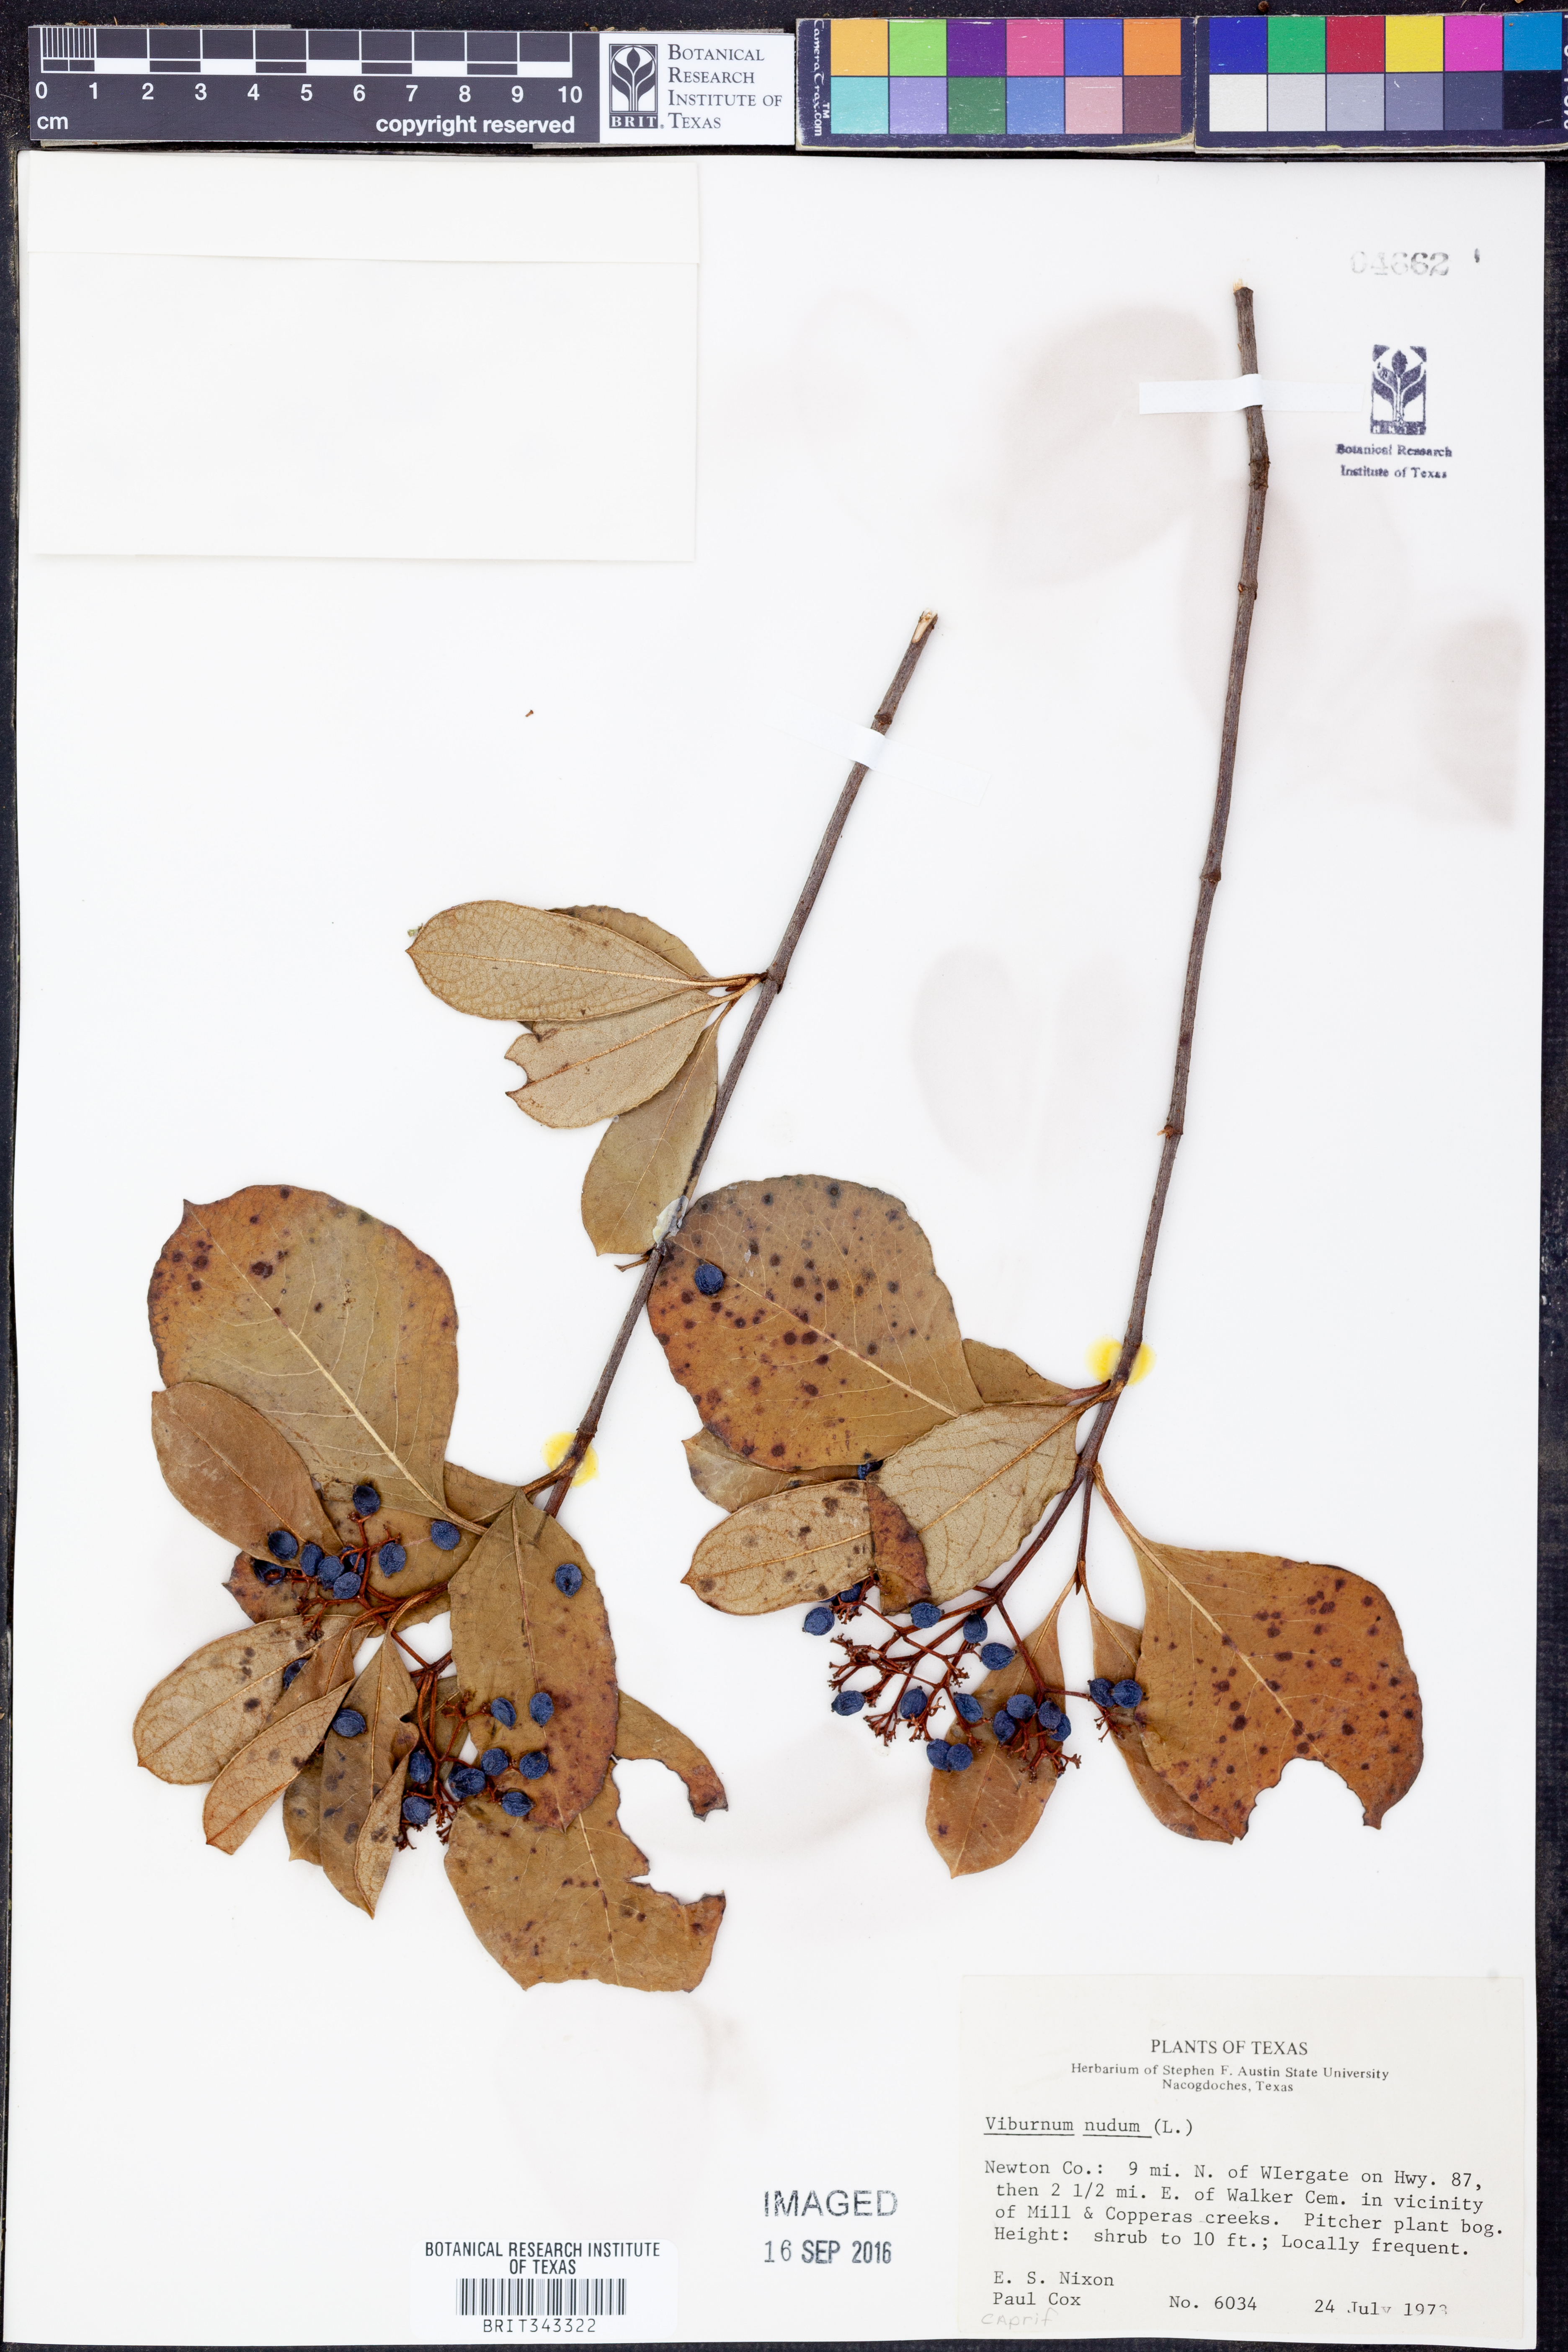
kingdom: Plantae
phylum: Tracheophyta
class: Magnoliopsida
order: Dipsacales
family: Viburnaceae
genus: Viburnum
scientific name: Viburnum nudum
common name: Possum haw
